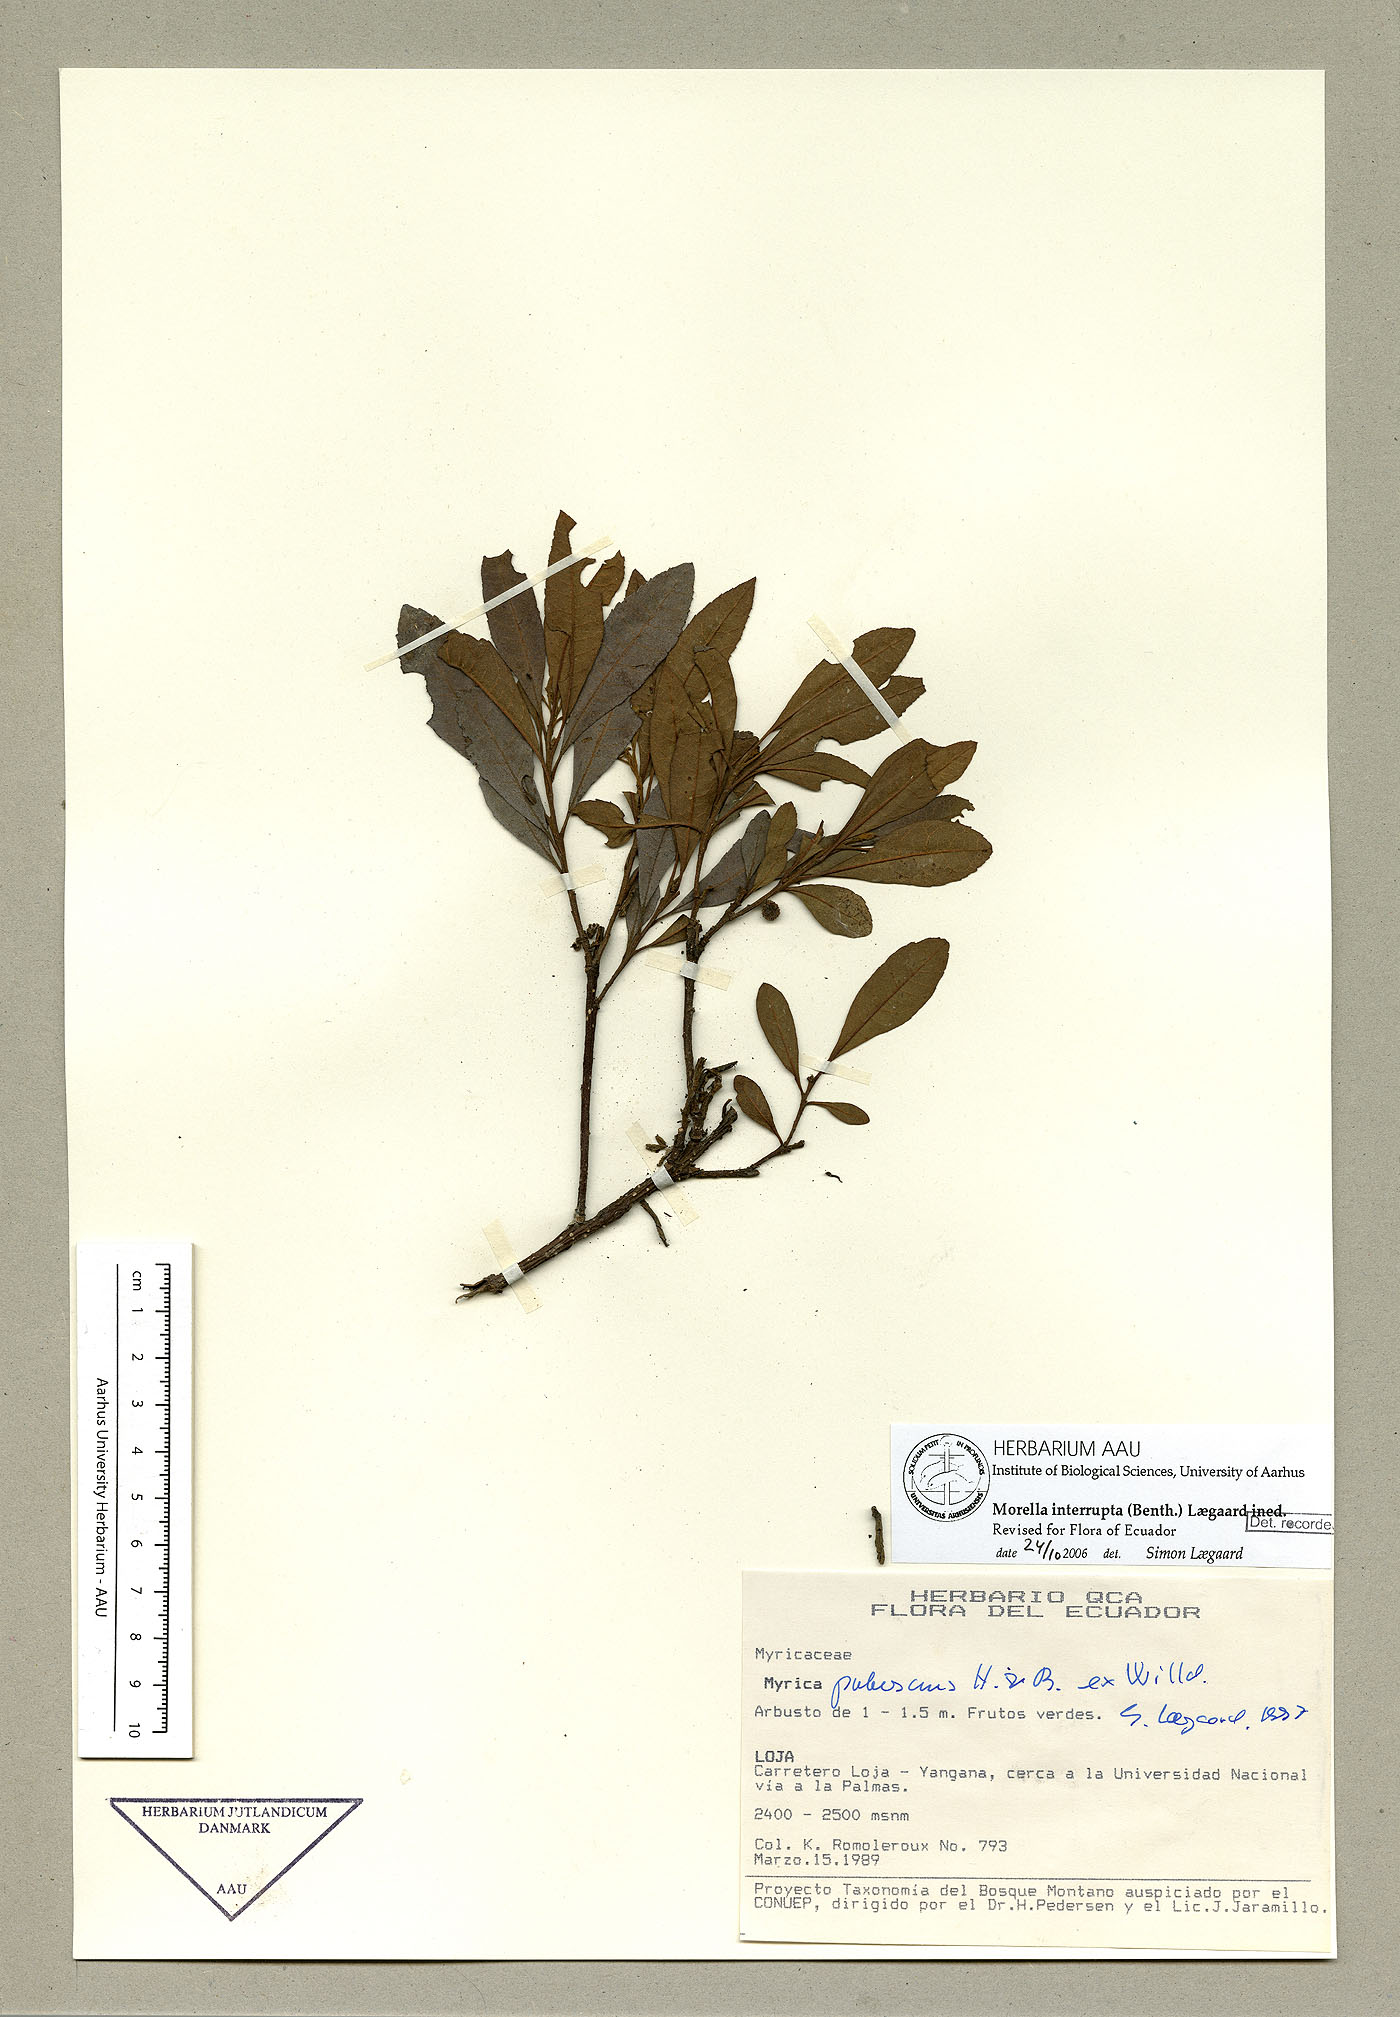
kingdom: Plantae
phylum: Tracheophyta
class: Magnoliopsida
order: Fagales
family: Myricaceae
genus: Morella
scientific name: Morella interrupta
